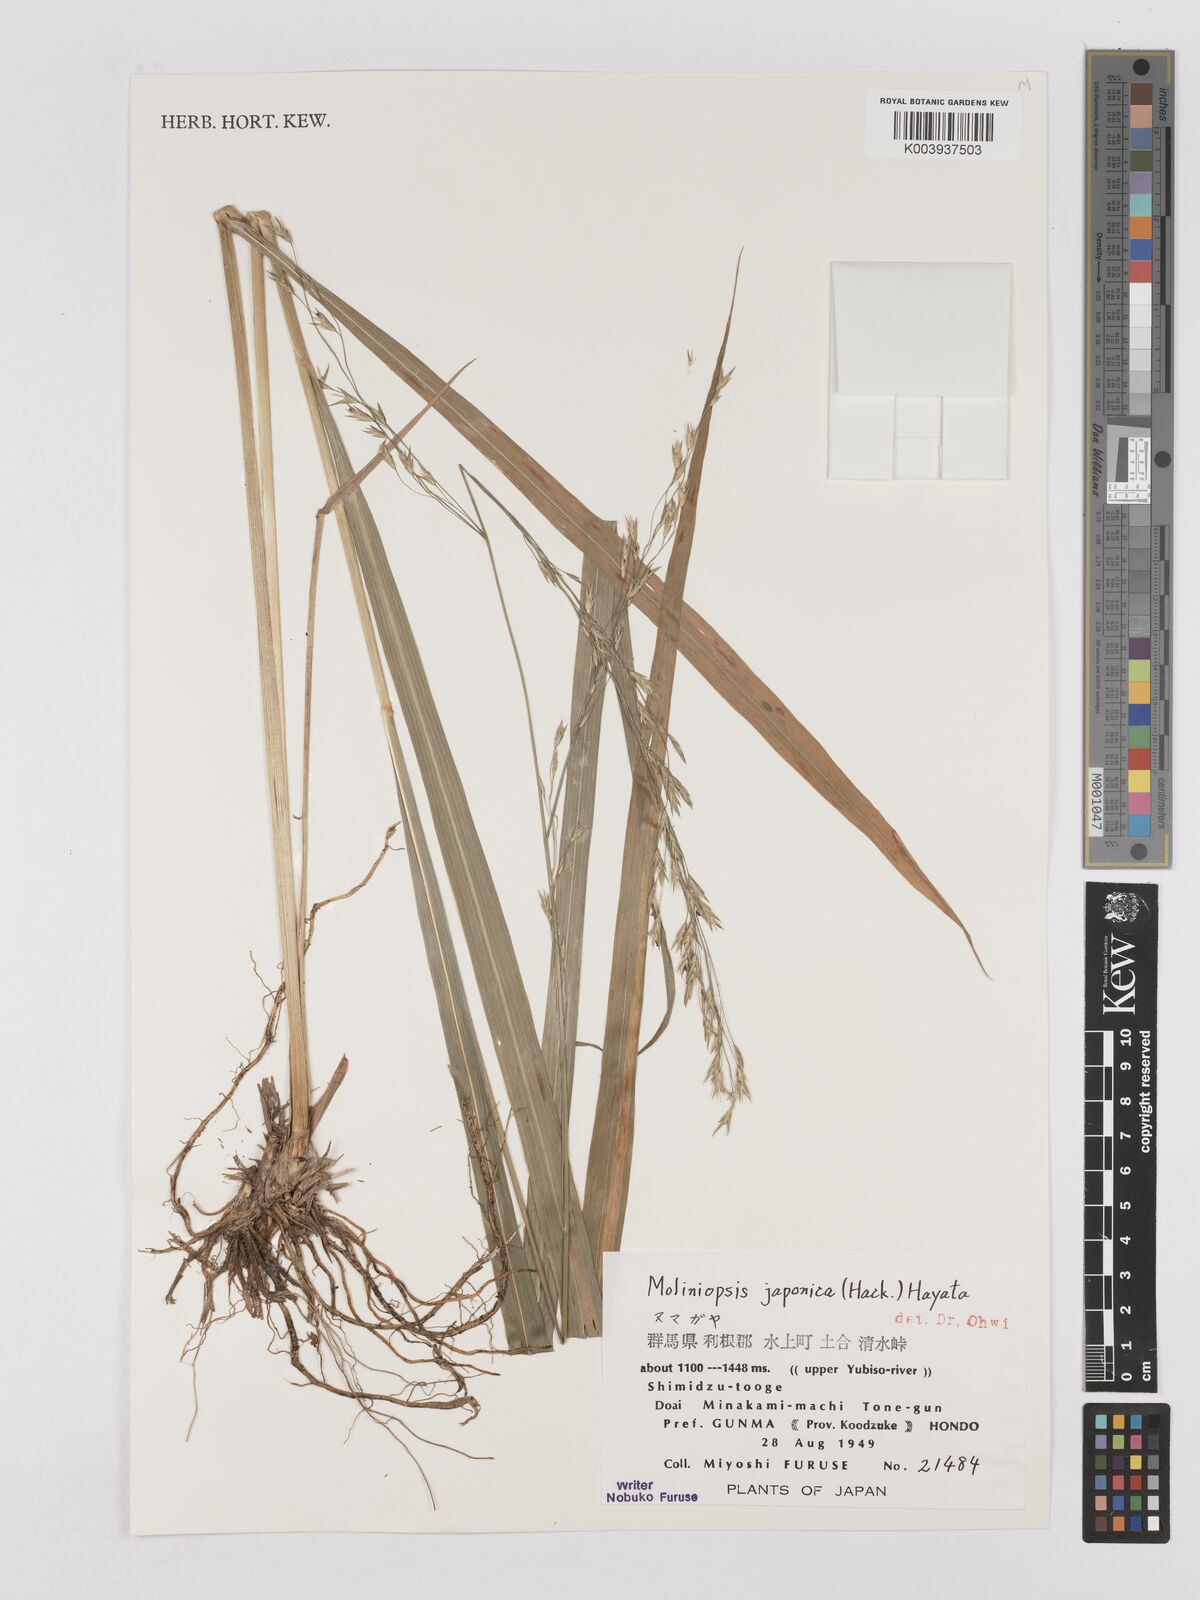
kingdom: Plantae
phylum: Tracheophyta
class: Liliopsida
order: Poales
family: Poaceae
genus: Moliniopsis
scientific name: Moliniopsis japonica
